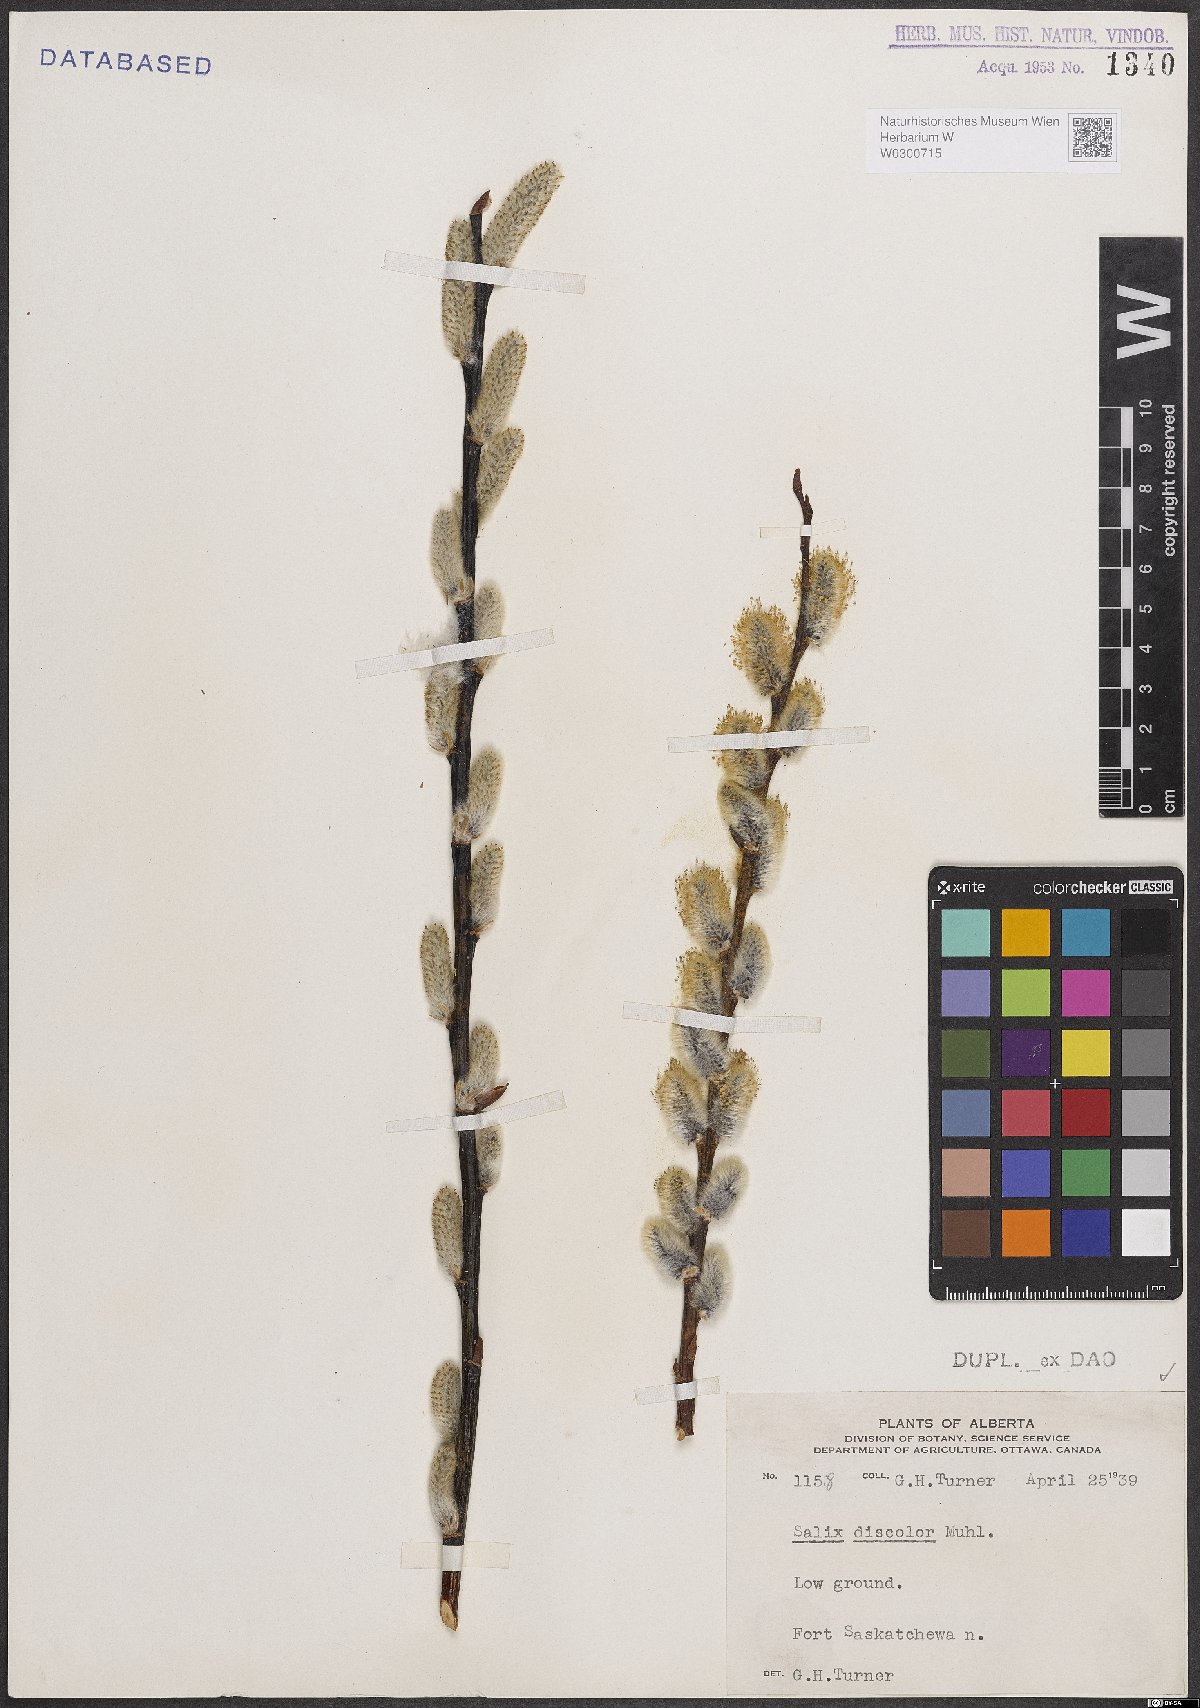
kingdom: Plantae
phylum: Tracheophyta
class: Magnoliopsida
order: Malpighiales
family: Salicaceae
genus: Salix
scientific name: Salix discolor
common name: Glaucous willow
